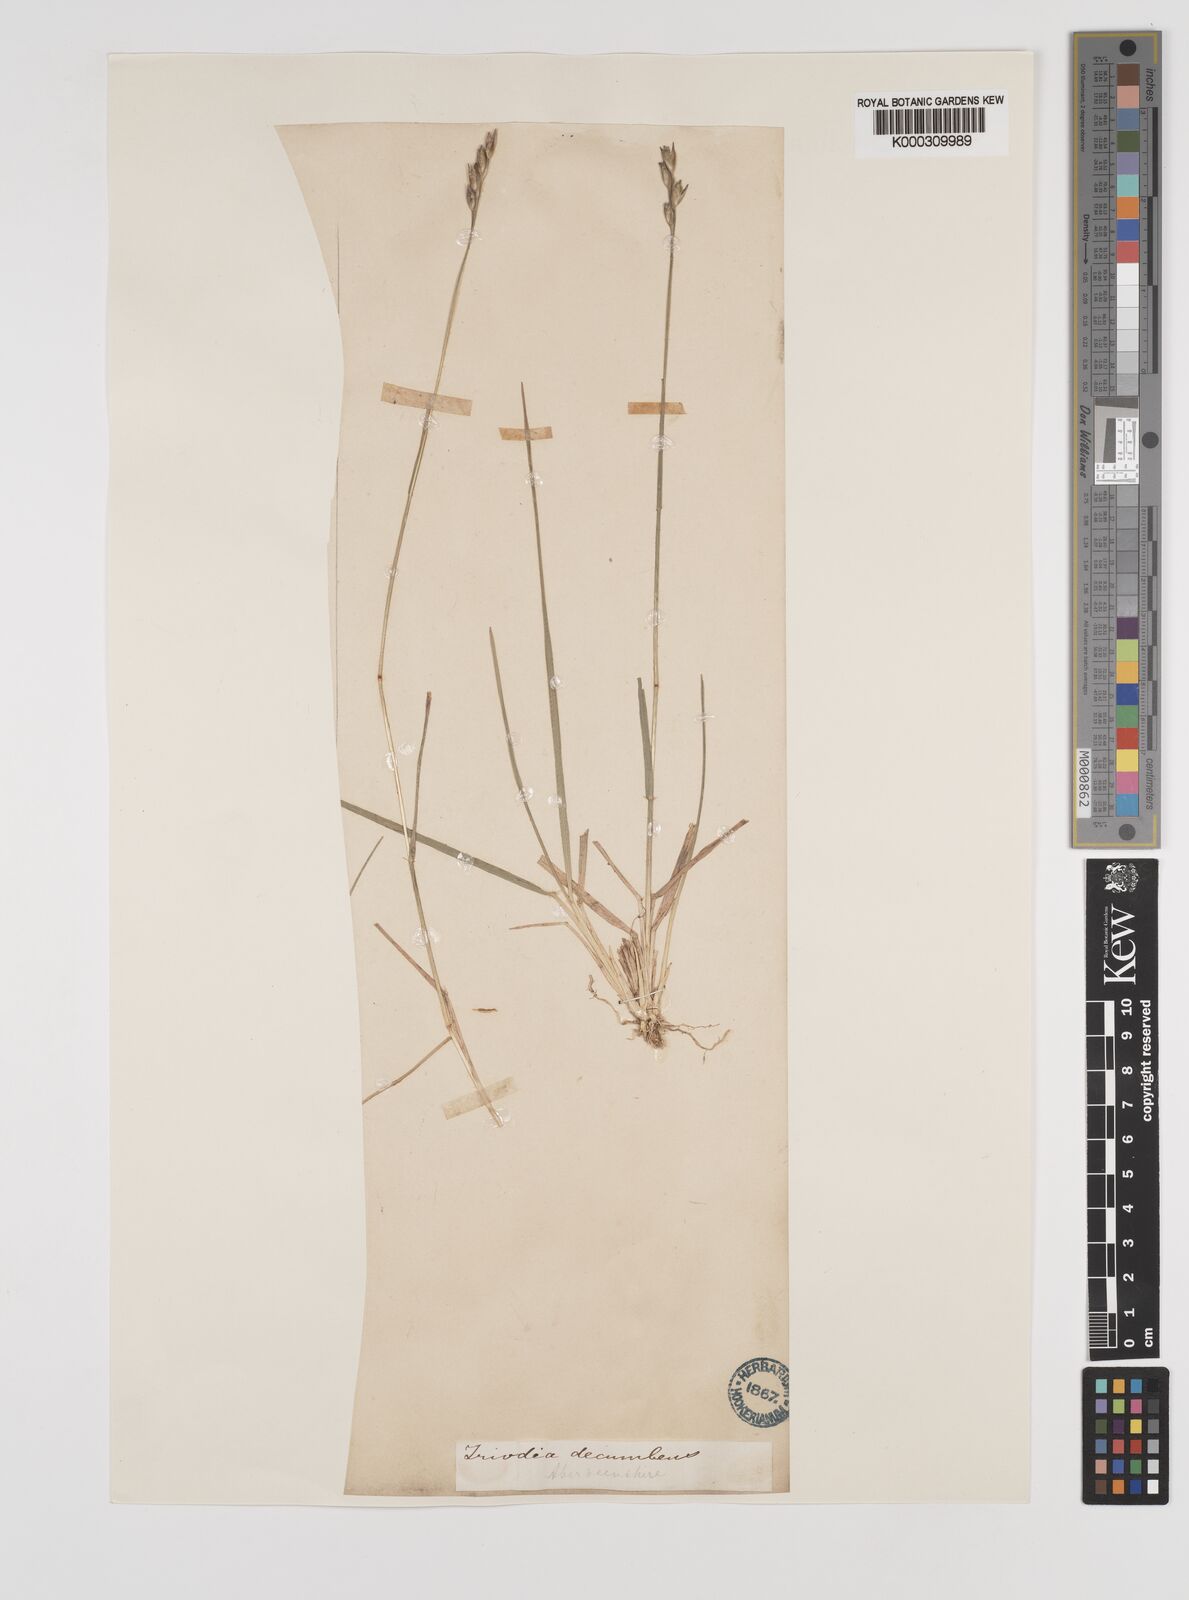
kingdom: Plantae
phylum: Tracheophyta
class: Liliopsida
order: Poales
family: Poaceae
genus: Danthonia
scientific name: Danthonia decumbens
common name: Common heathgrass
